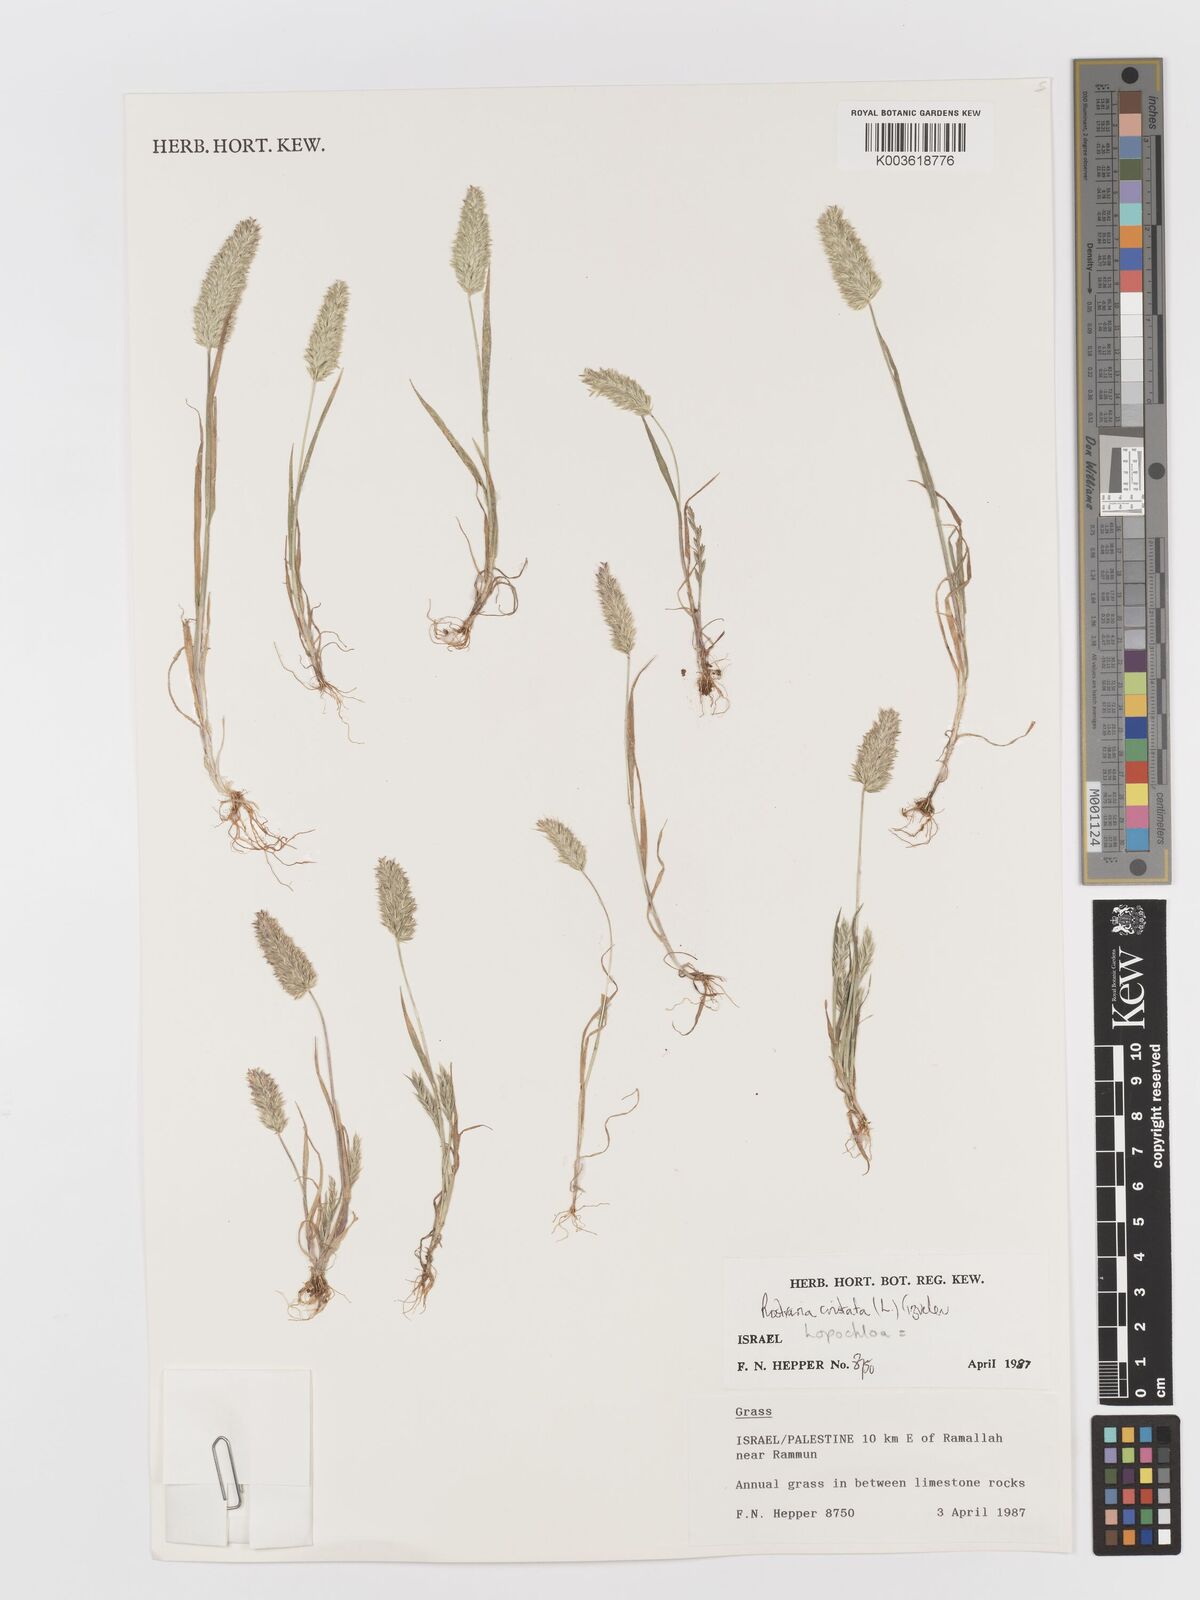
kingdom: Plantae
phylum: Tracheophyta
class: Liliopsida
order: Poales
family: Poaceae
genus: Rostraria
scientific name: Rostraria cristata
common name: Mediterranean hair-grass
